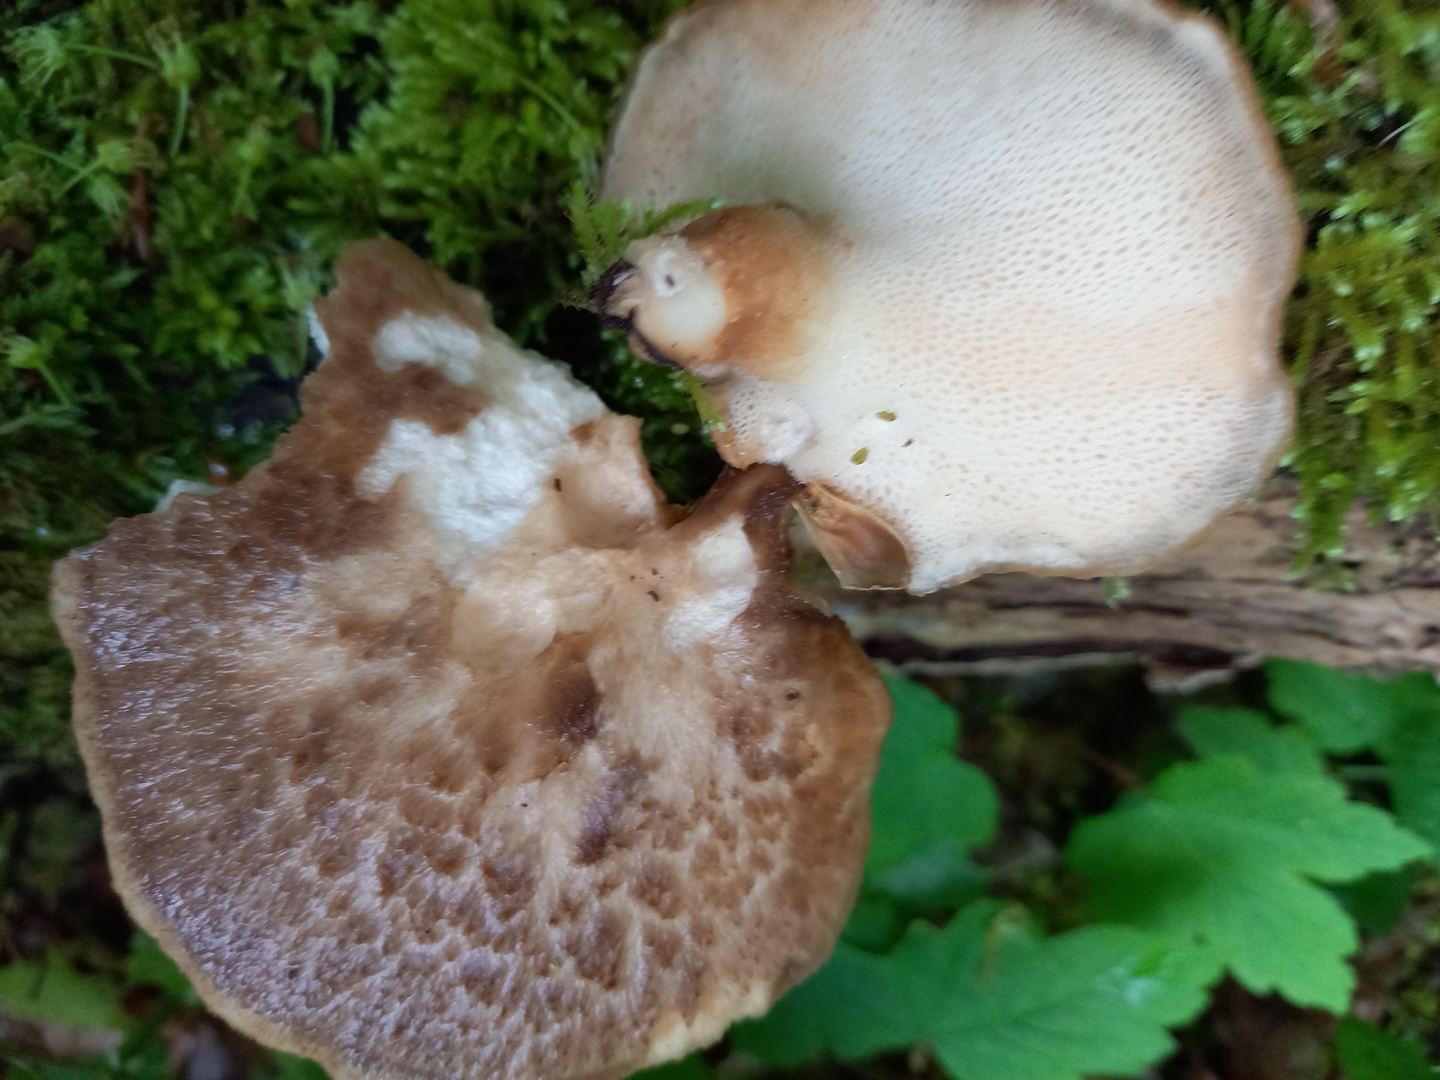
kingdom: Fungi
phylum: Basidiomycota
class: Agaricomycetes
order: Polyporales
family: Polyporaceae
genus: Polyporus
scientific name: Polyporus tuberaster
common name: knoldet stilkporesvamp
